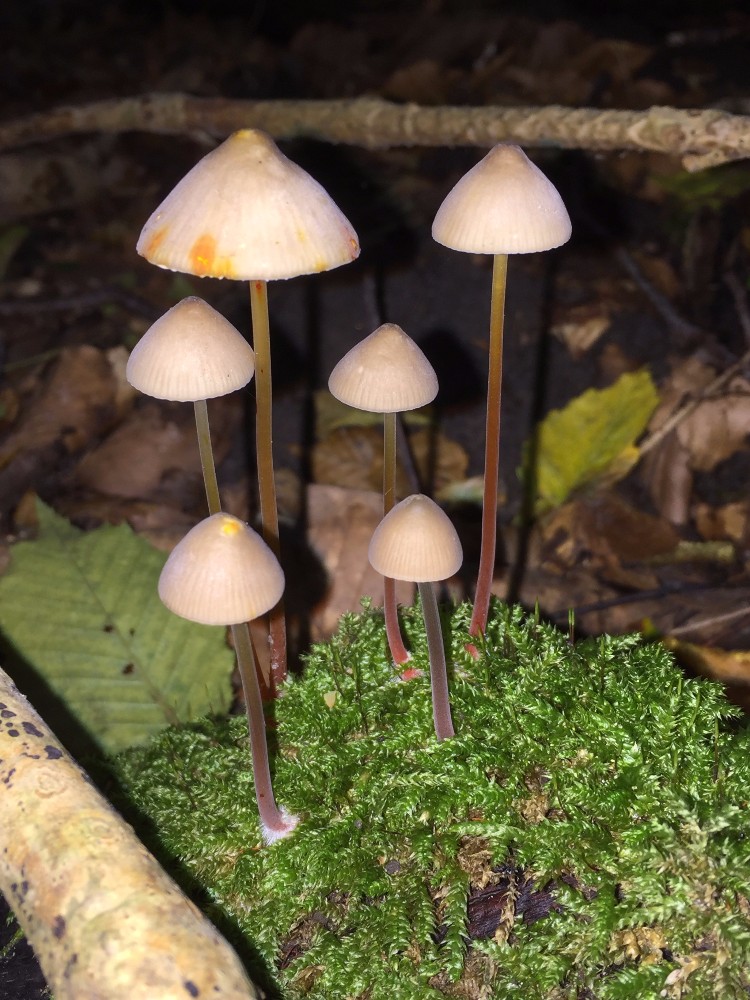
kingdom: Fungi
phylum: Basidiomycota
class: Agaricomycetes
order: Agaricales
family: Mycenaceae
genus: Mycena
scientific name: Mycena crocata
